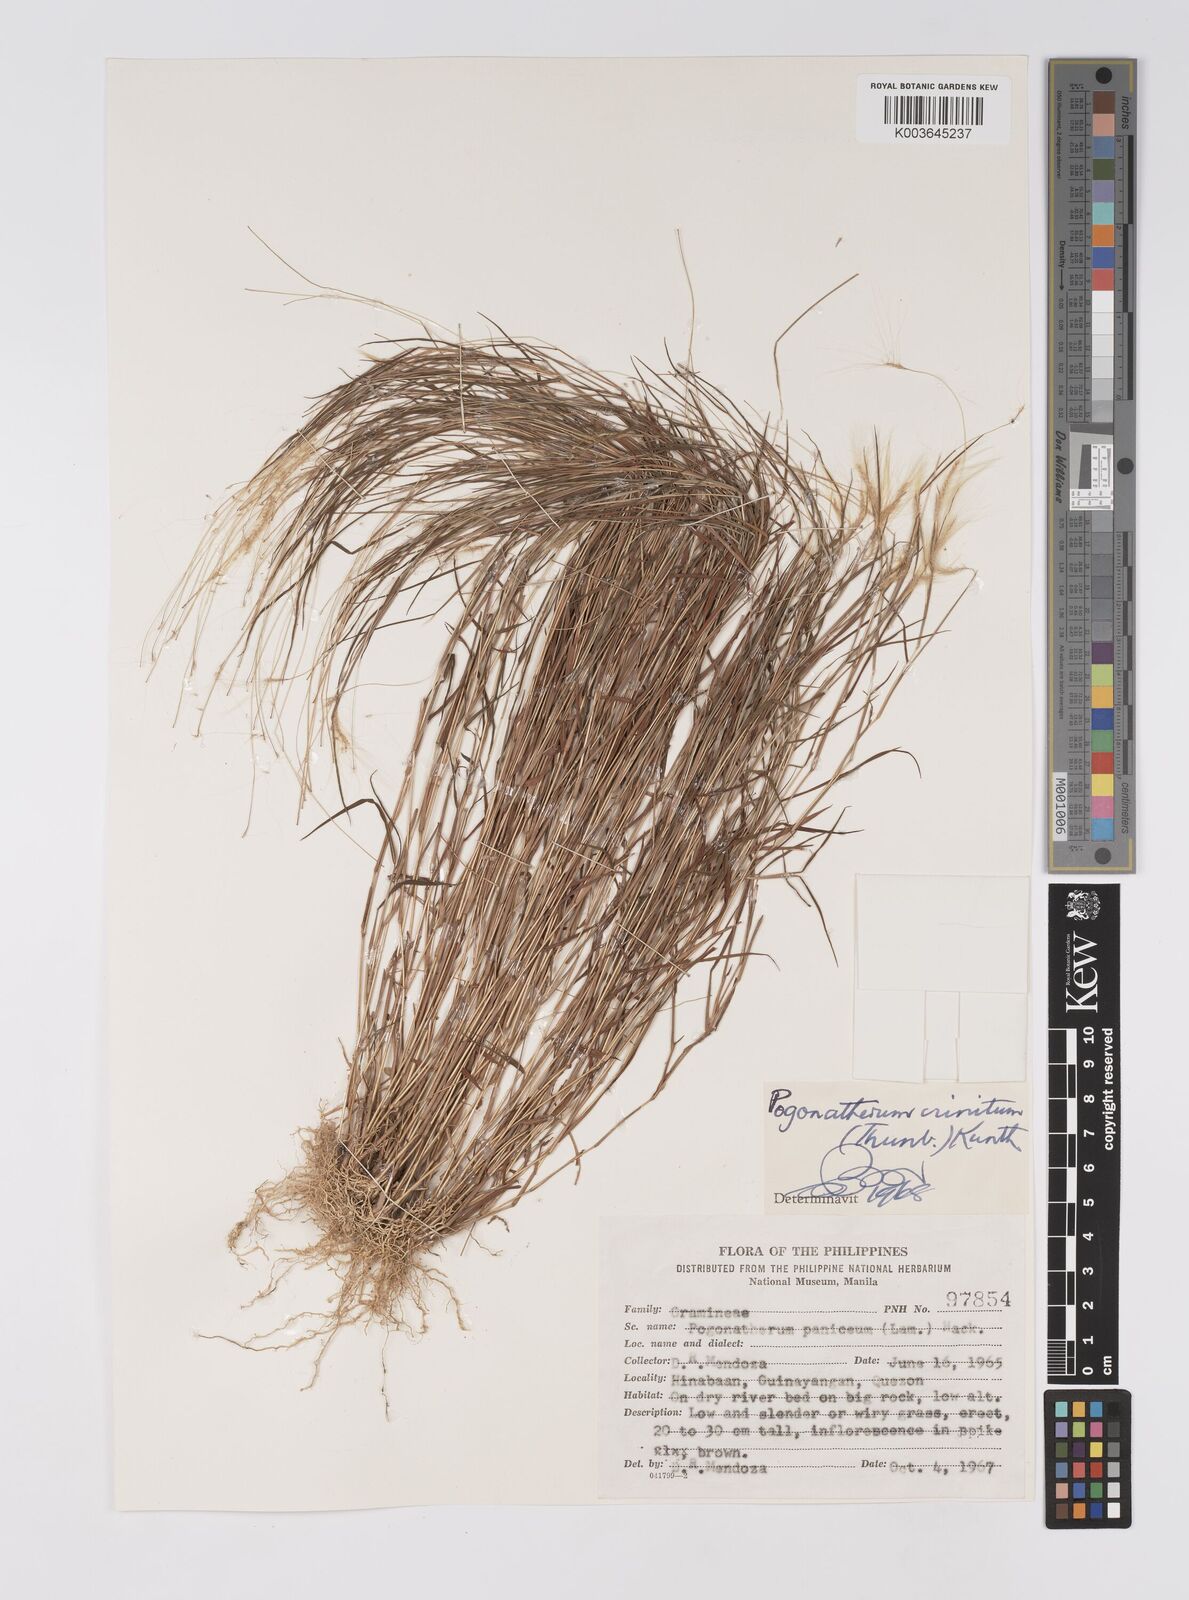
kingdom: Plantae
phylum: Tracheophyta
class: Liliopsida
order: Poales
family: Poaceae
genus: Pogonatherum
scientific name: Pogonatherum crinitum
